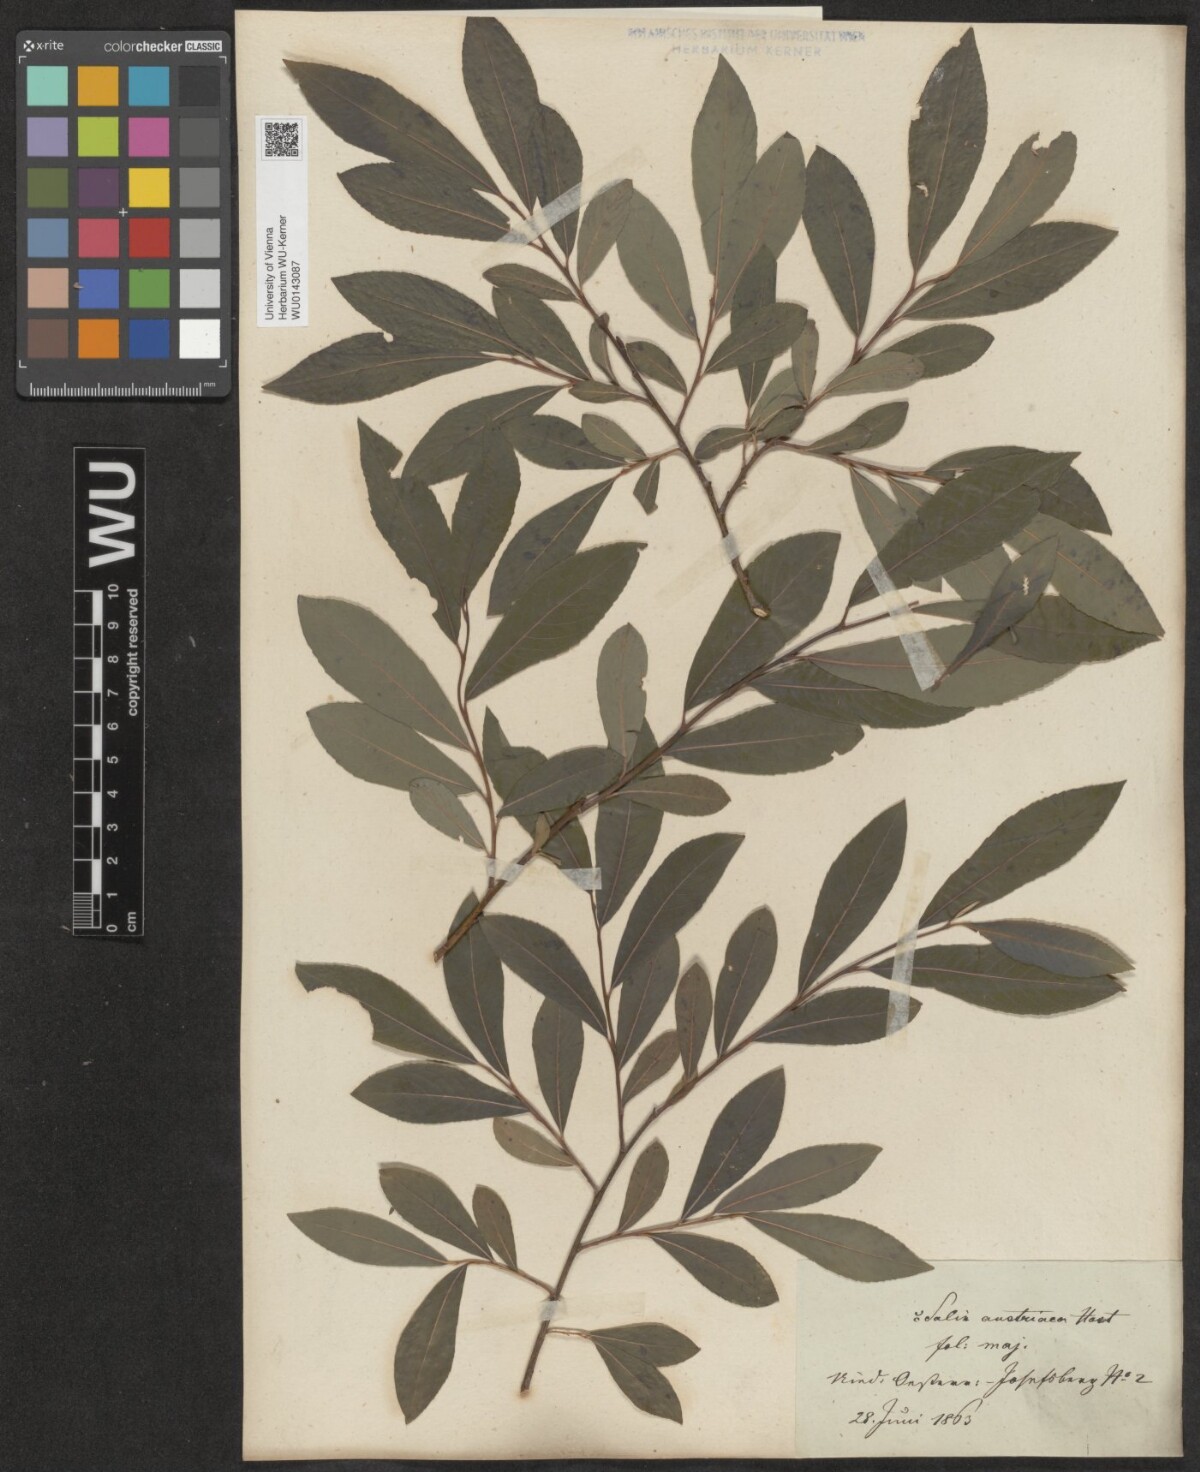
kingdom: Plantae
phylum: Tracheophyta
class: Magnoliopsida
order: Malpighiales
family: Salicaceae
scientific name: Salicaceae
